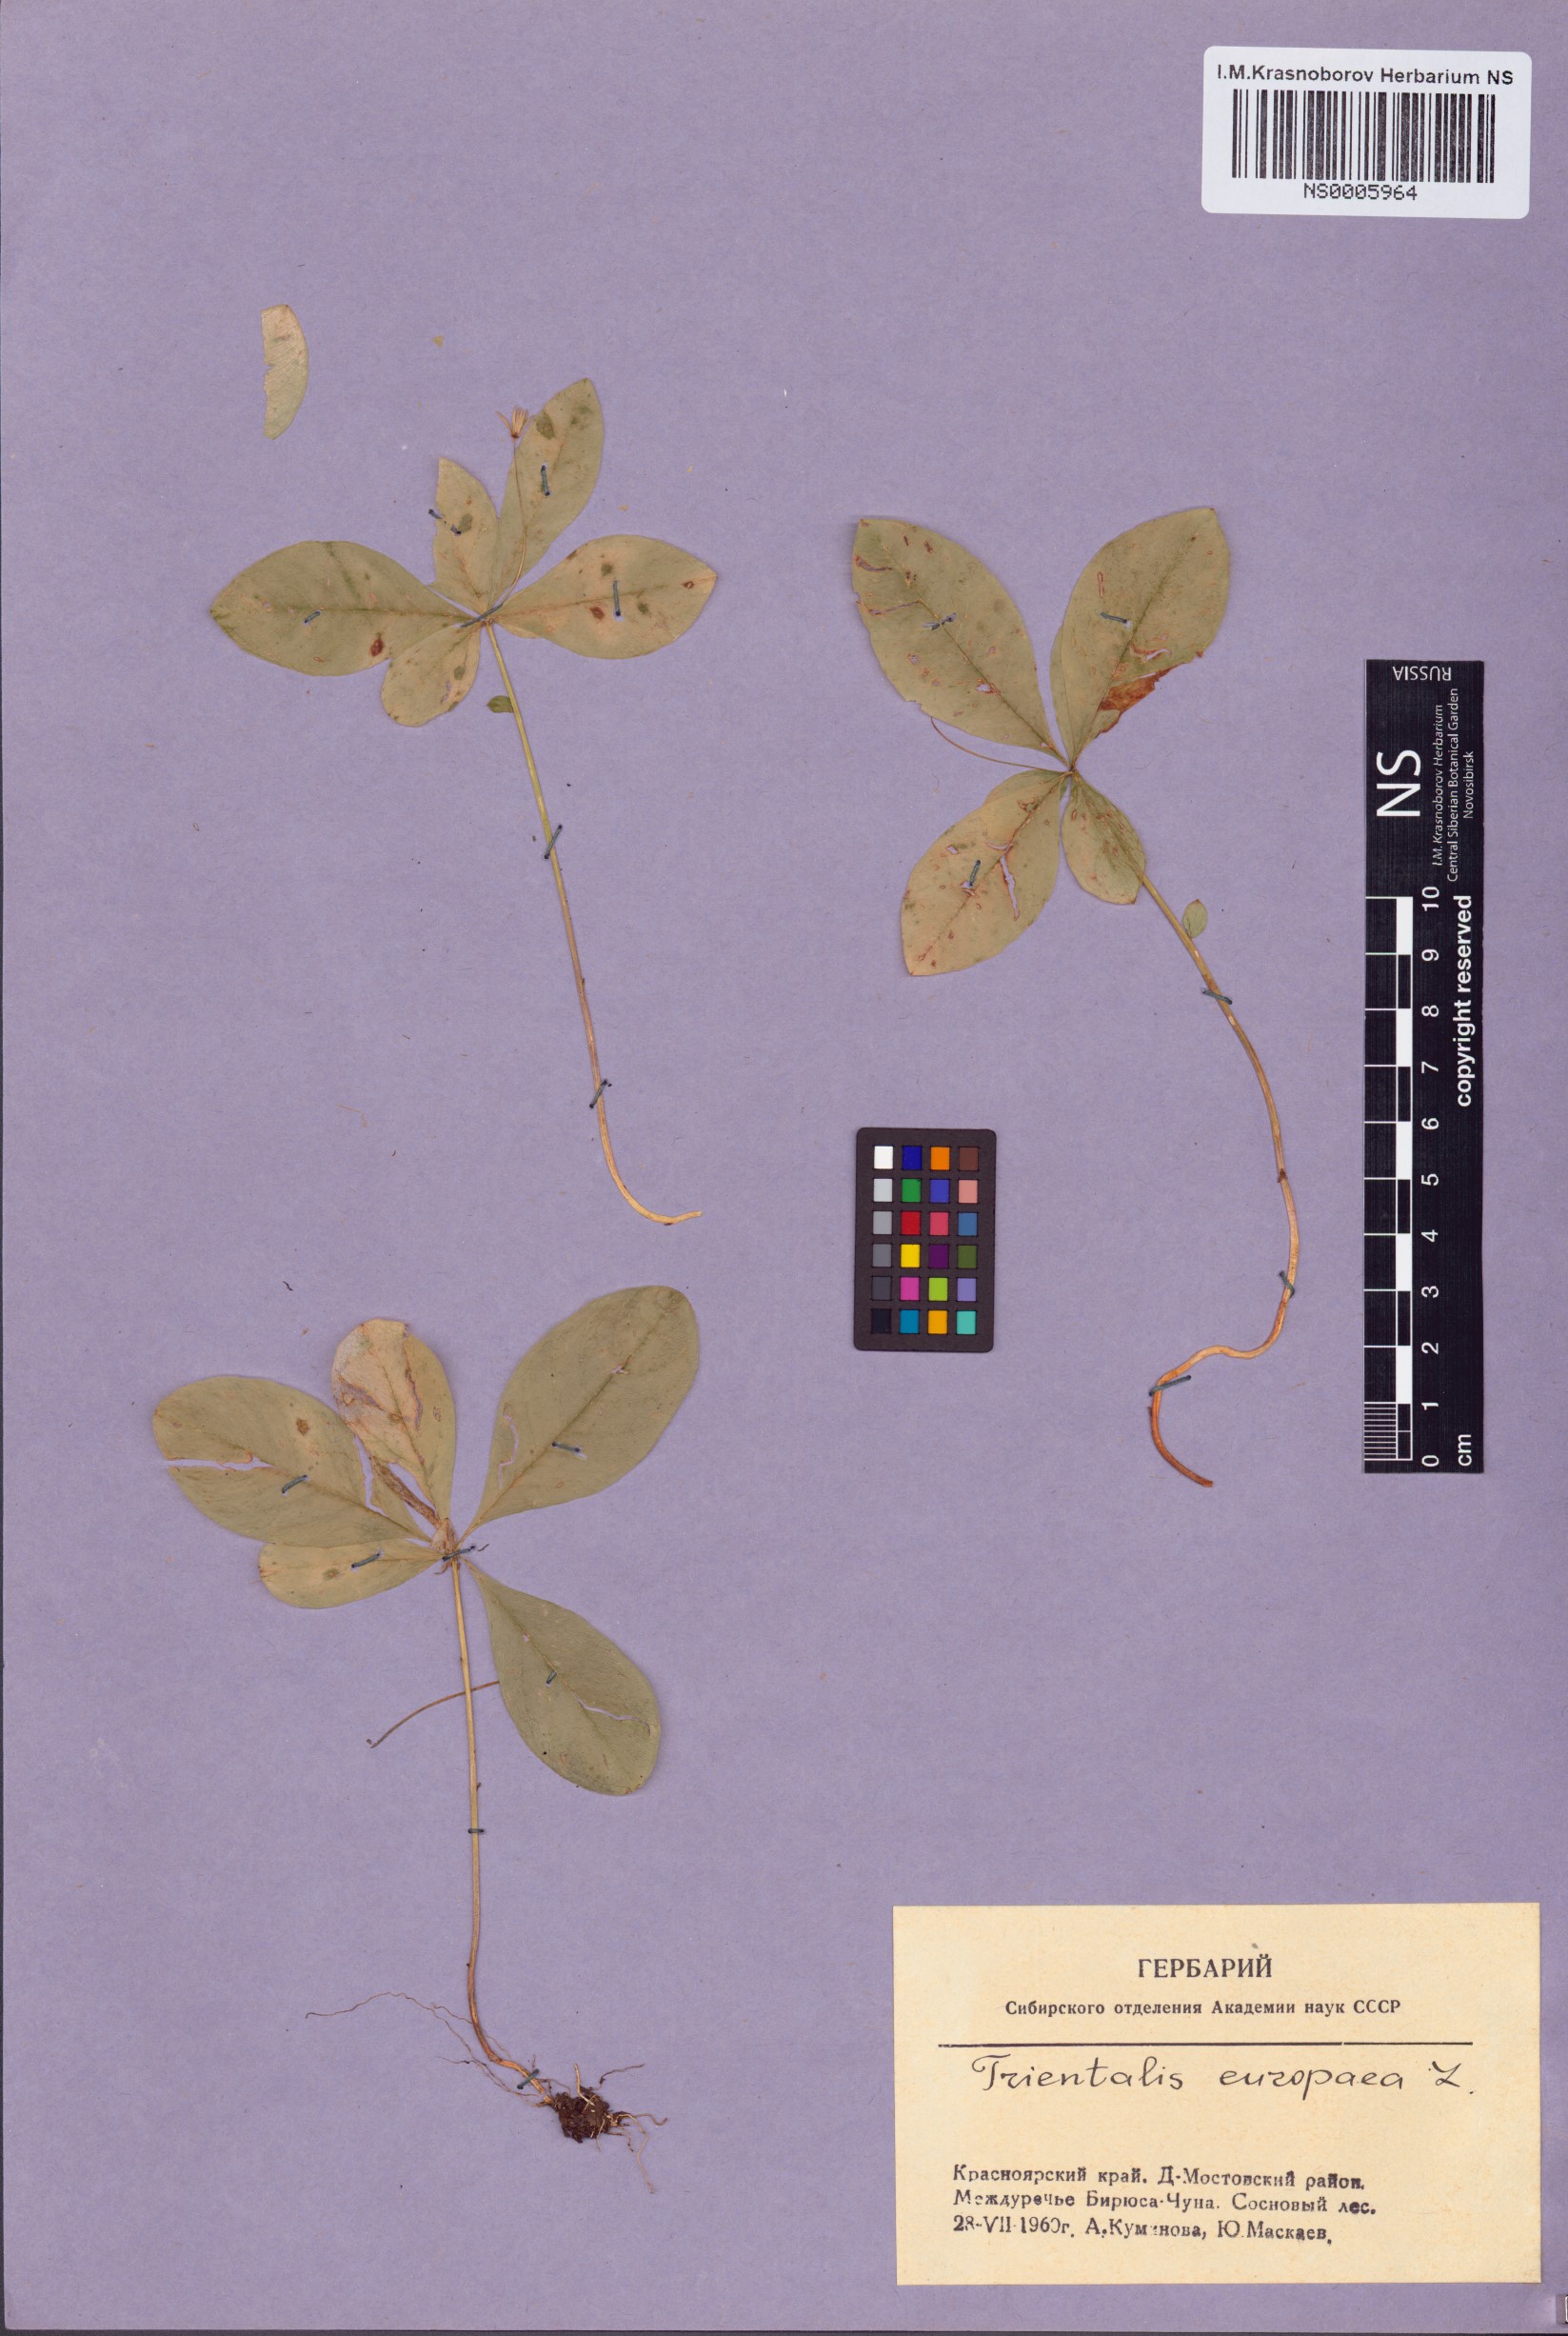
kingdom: Plantae
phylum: Tracheophyta
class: Magnoliopsida
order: Ericales
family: Primulaceae
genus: Lysimachia
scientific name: Lysimachia europaea
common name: Arctic starflower
